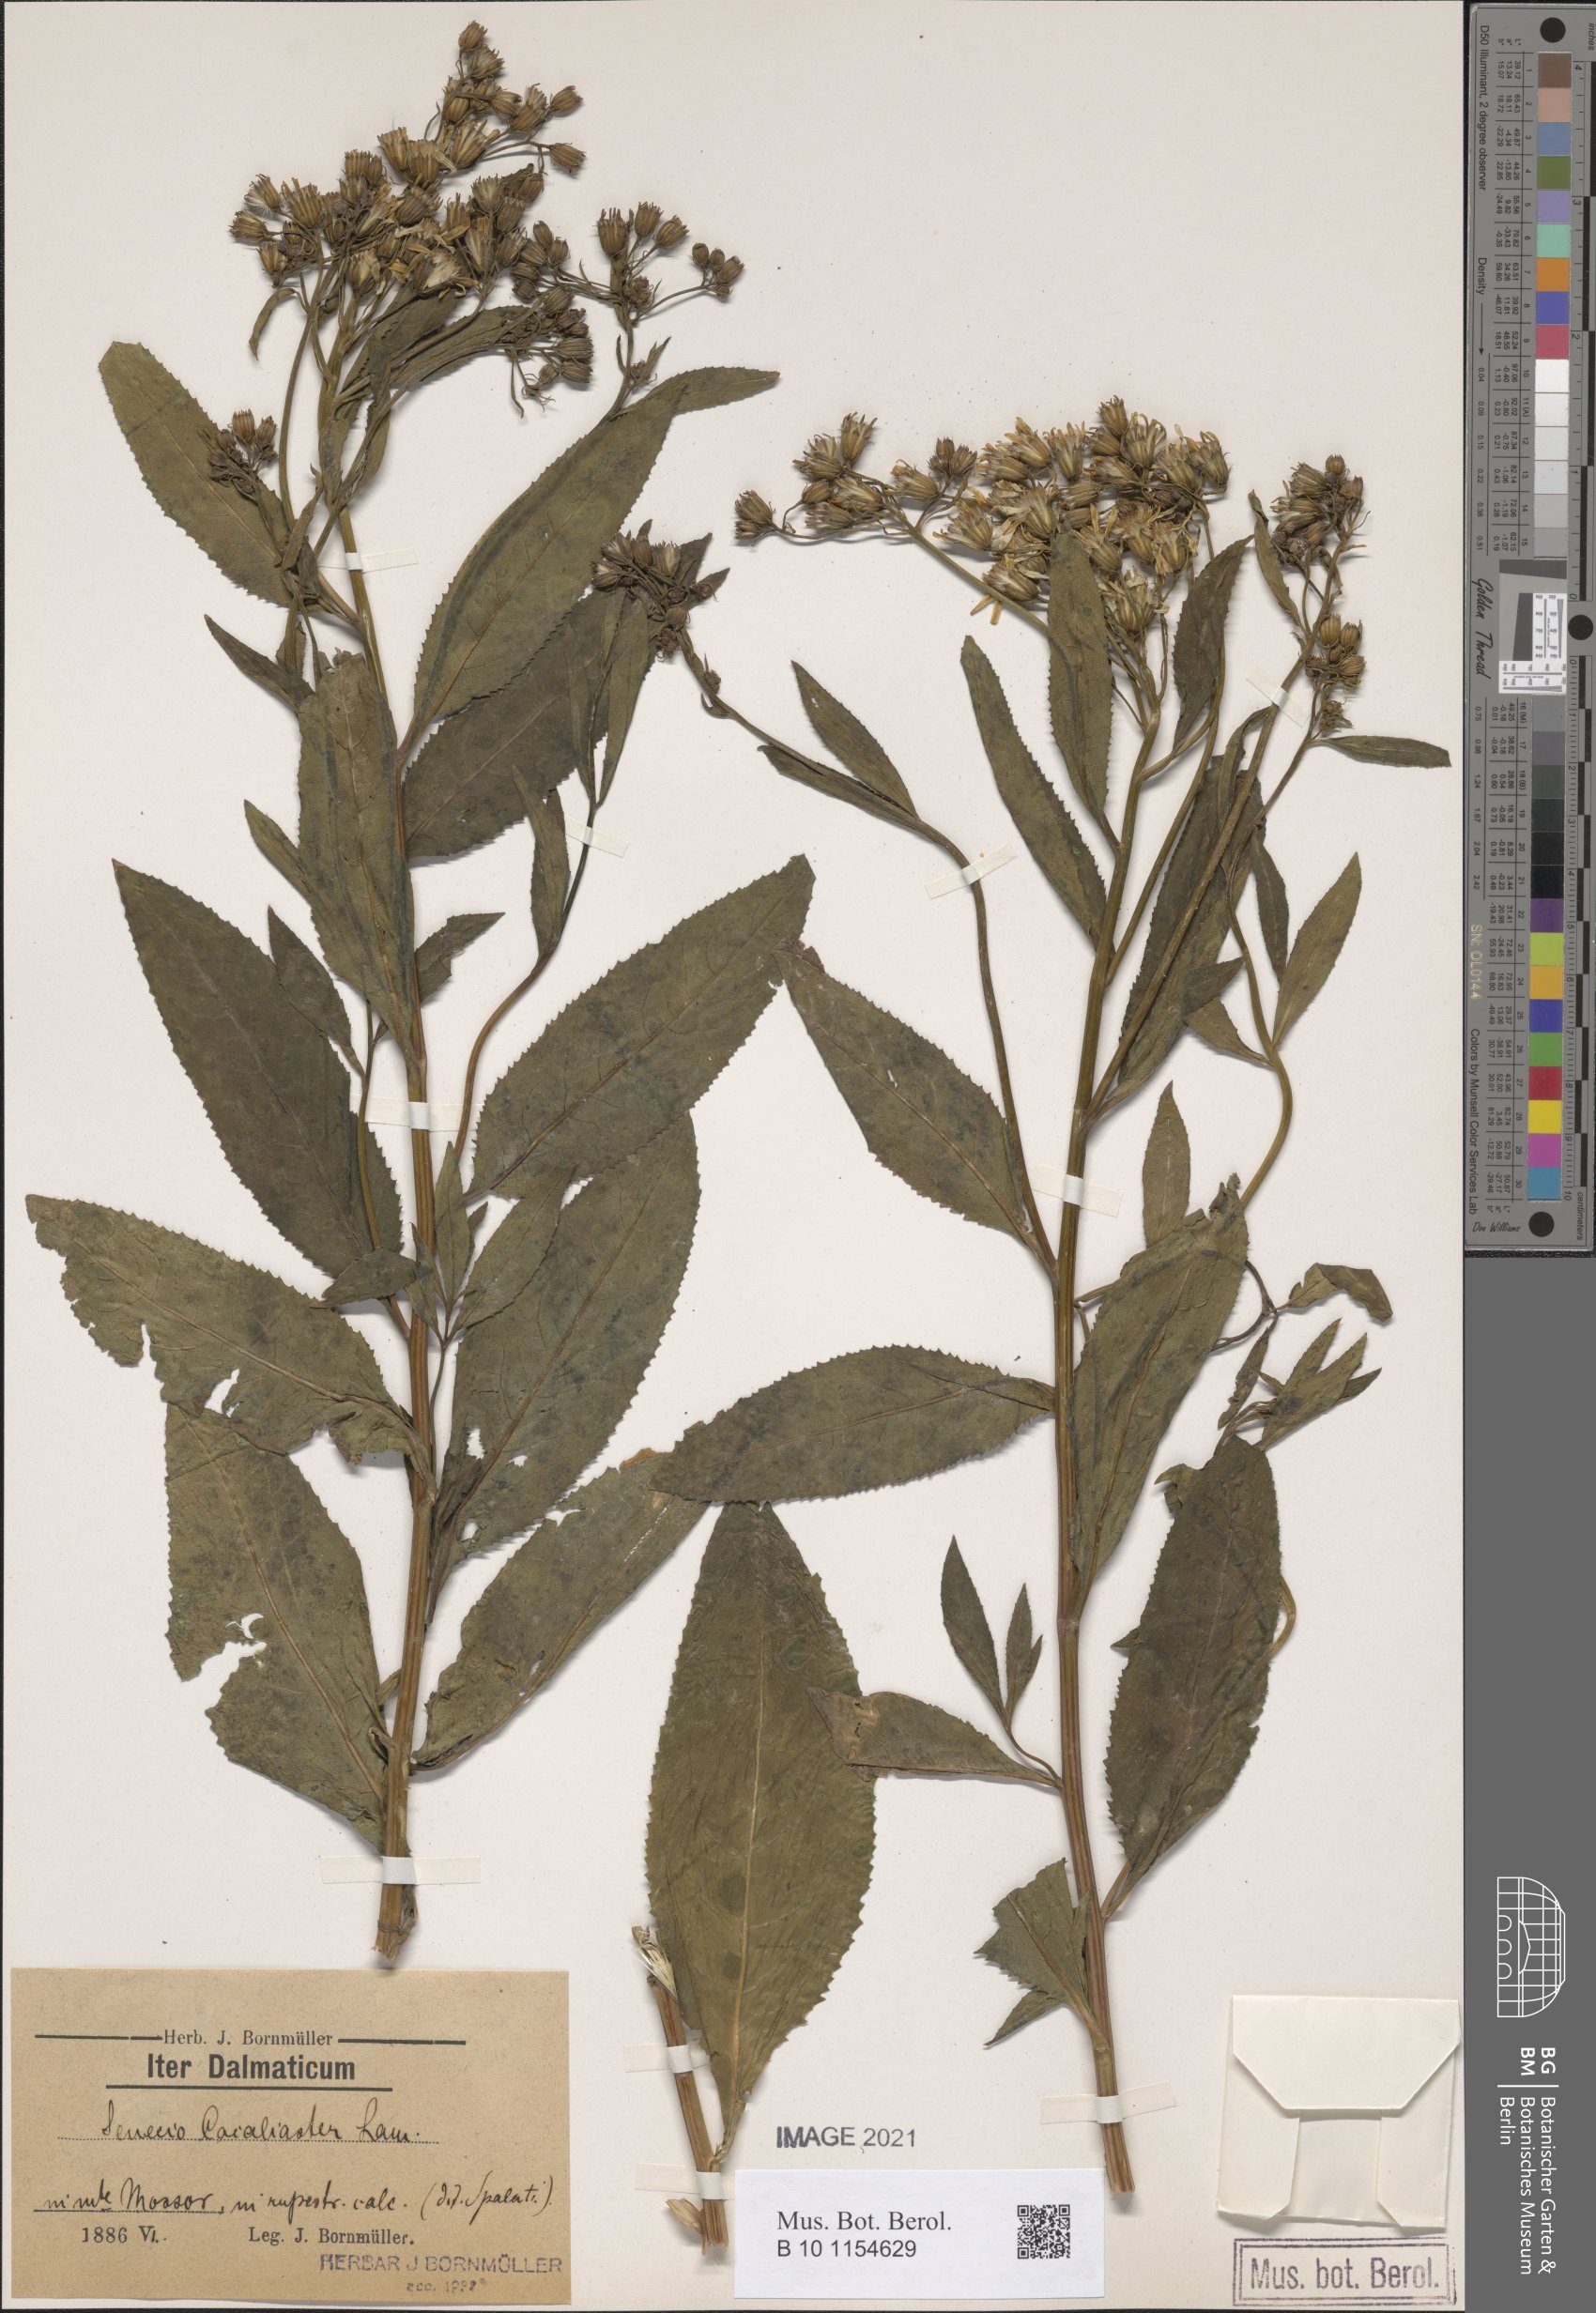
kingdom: Plantae
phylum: Tracheophyta
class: Magnoliopsida
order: Asterales
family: Asteraceae
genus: Senecio
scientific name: Senecio cacaliaster
